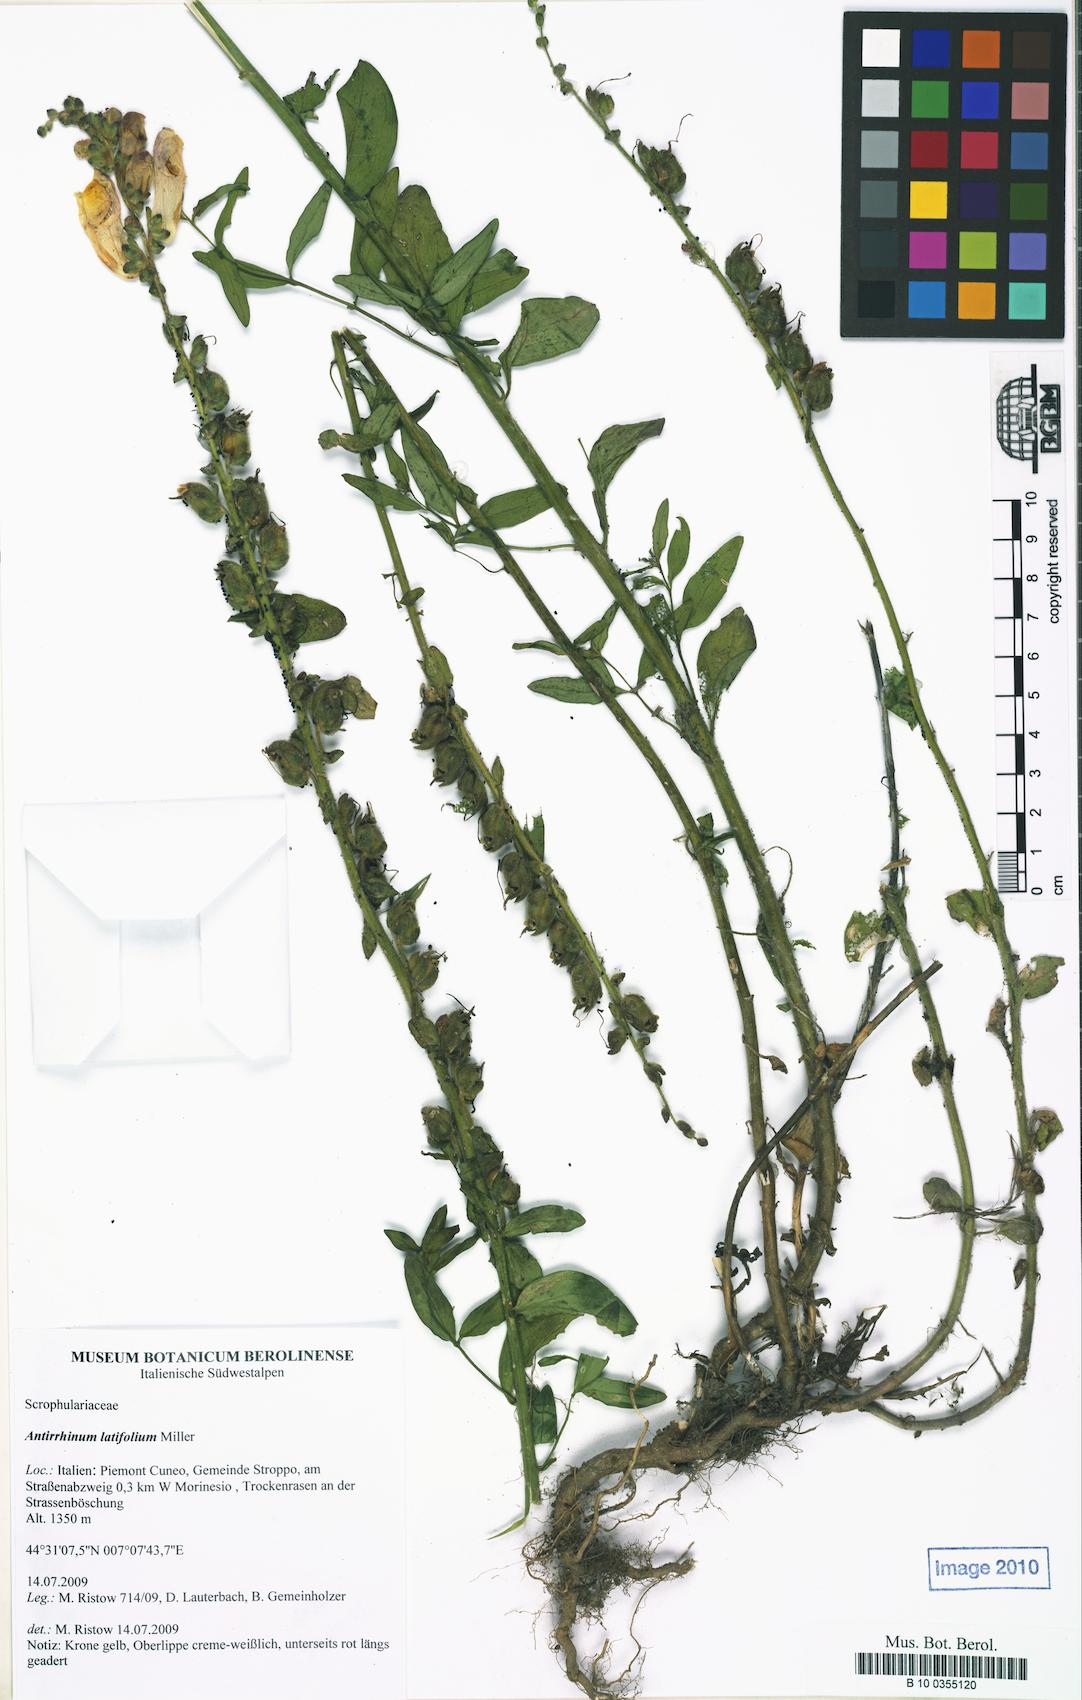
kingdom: Plantae
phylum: Tracheophyta
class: Magnoliopsida
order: Lamiales
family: Plantaginaceae
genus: Antirrhinum
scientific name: Antirrhinum latifolium
